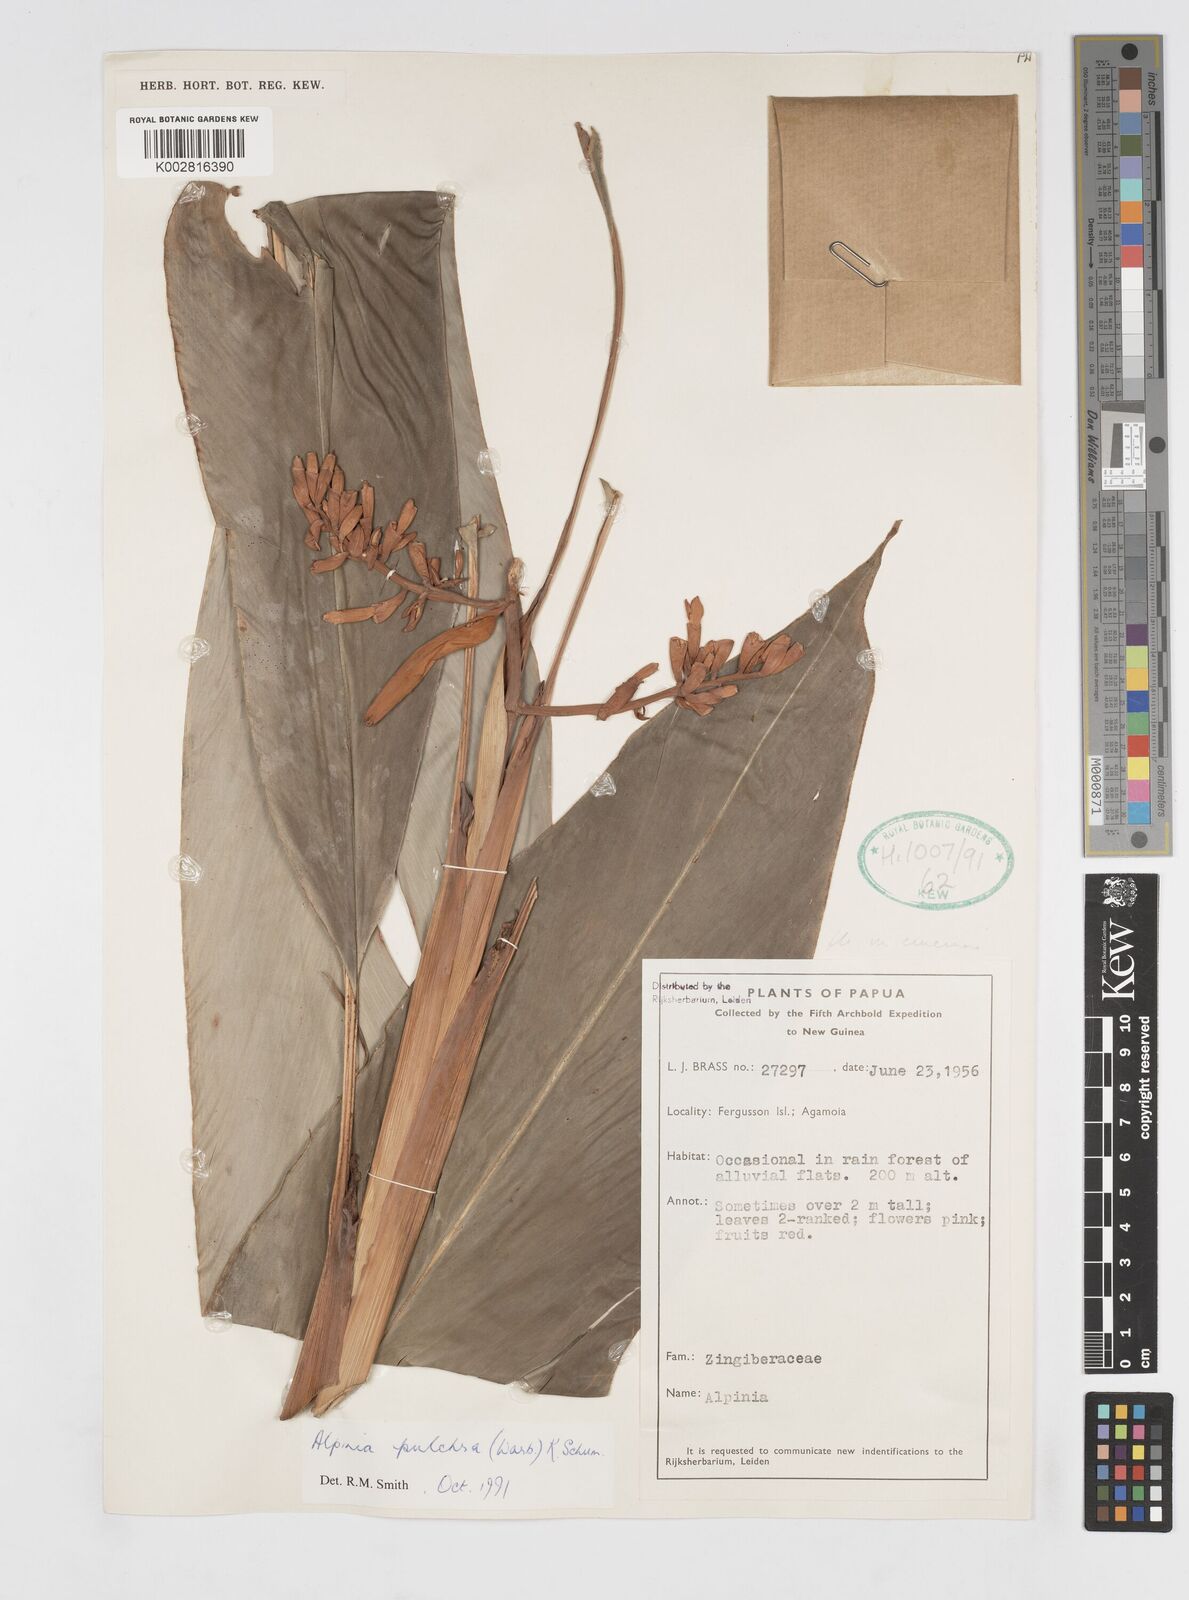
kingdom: Plantae
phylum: Tracheophyta
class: Liliopsida
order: Zingiberales
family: Zingiberaceae
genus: Alpinia
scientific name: Alpinia pulchra
